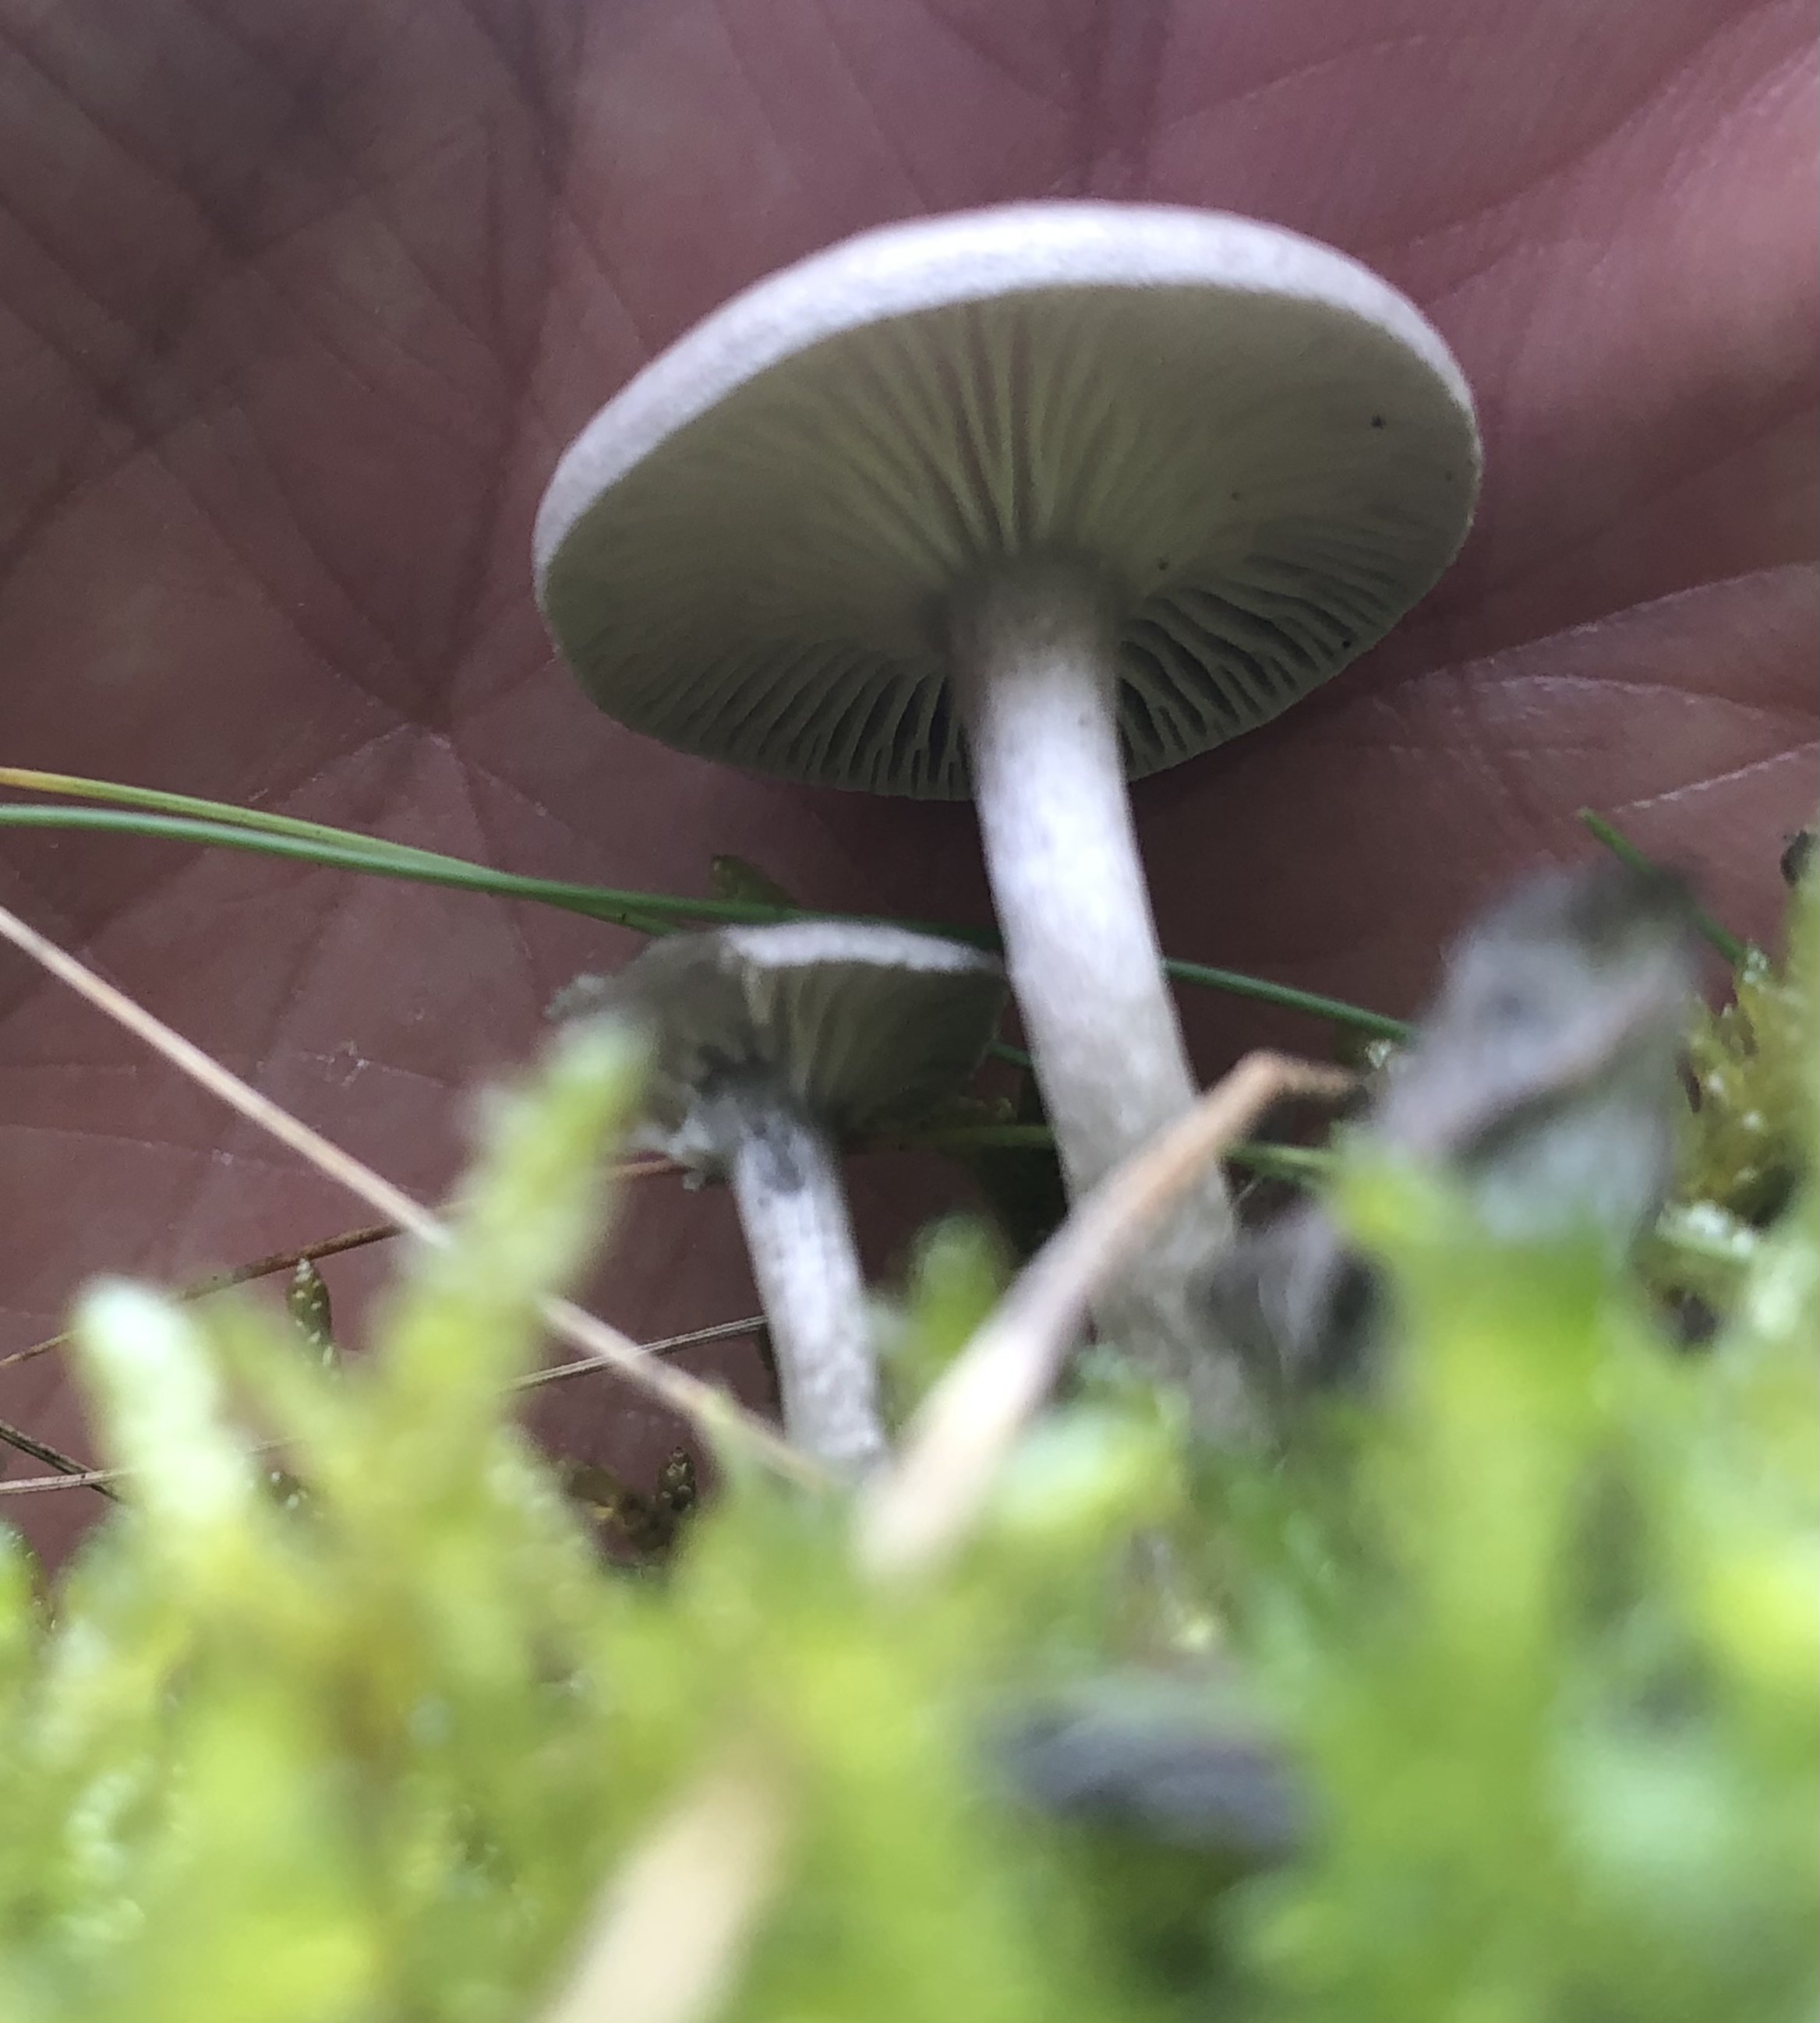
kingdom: Fungi
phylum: Basidiomycota
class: Agaricomycetes
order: Agaricales
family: Hygrophoraceae
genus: Cantharellula
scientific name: Cantharellula umbonata
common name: rødmende gaffelblad
